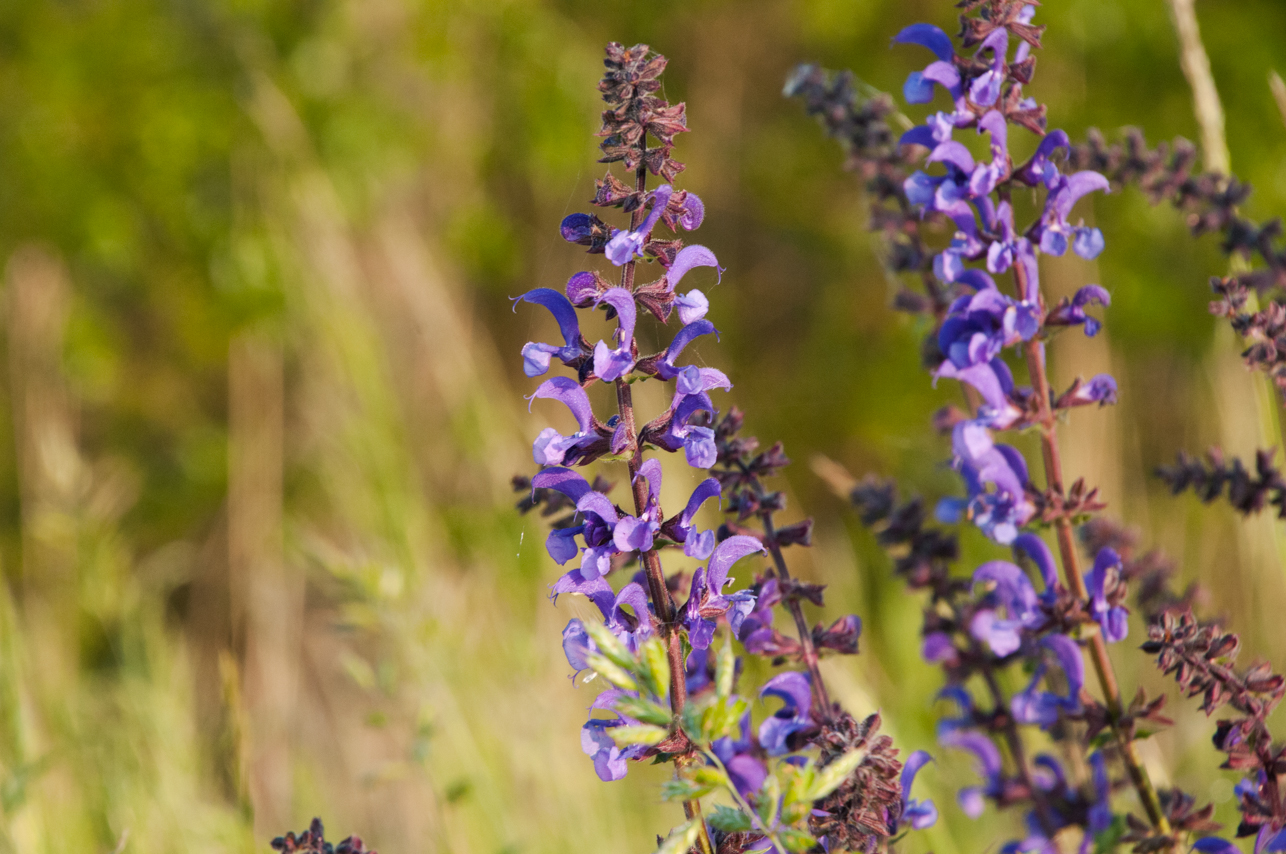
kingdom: Plantae
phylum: Tracheophyta
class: Magnoliopsida
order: Lamiales
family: Lamiaceae
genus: Salvia
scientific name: Salvia pratensis
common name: Meadow sage
